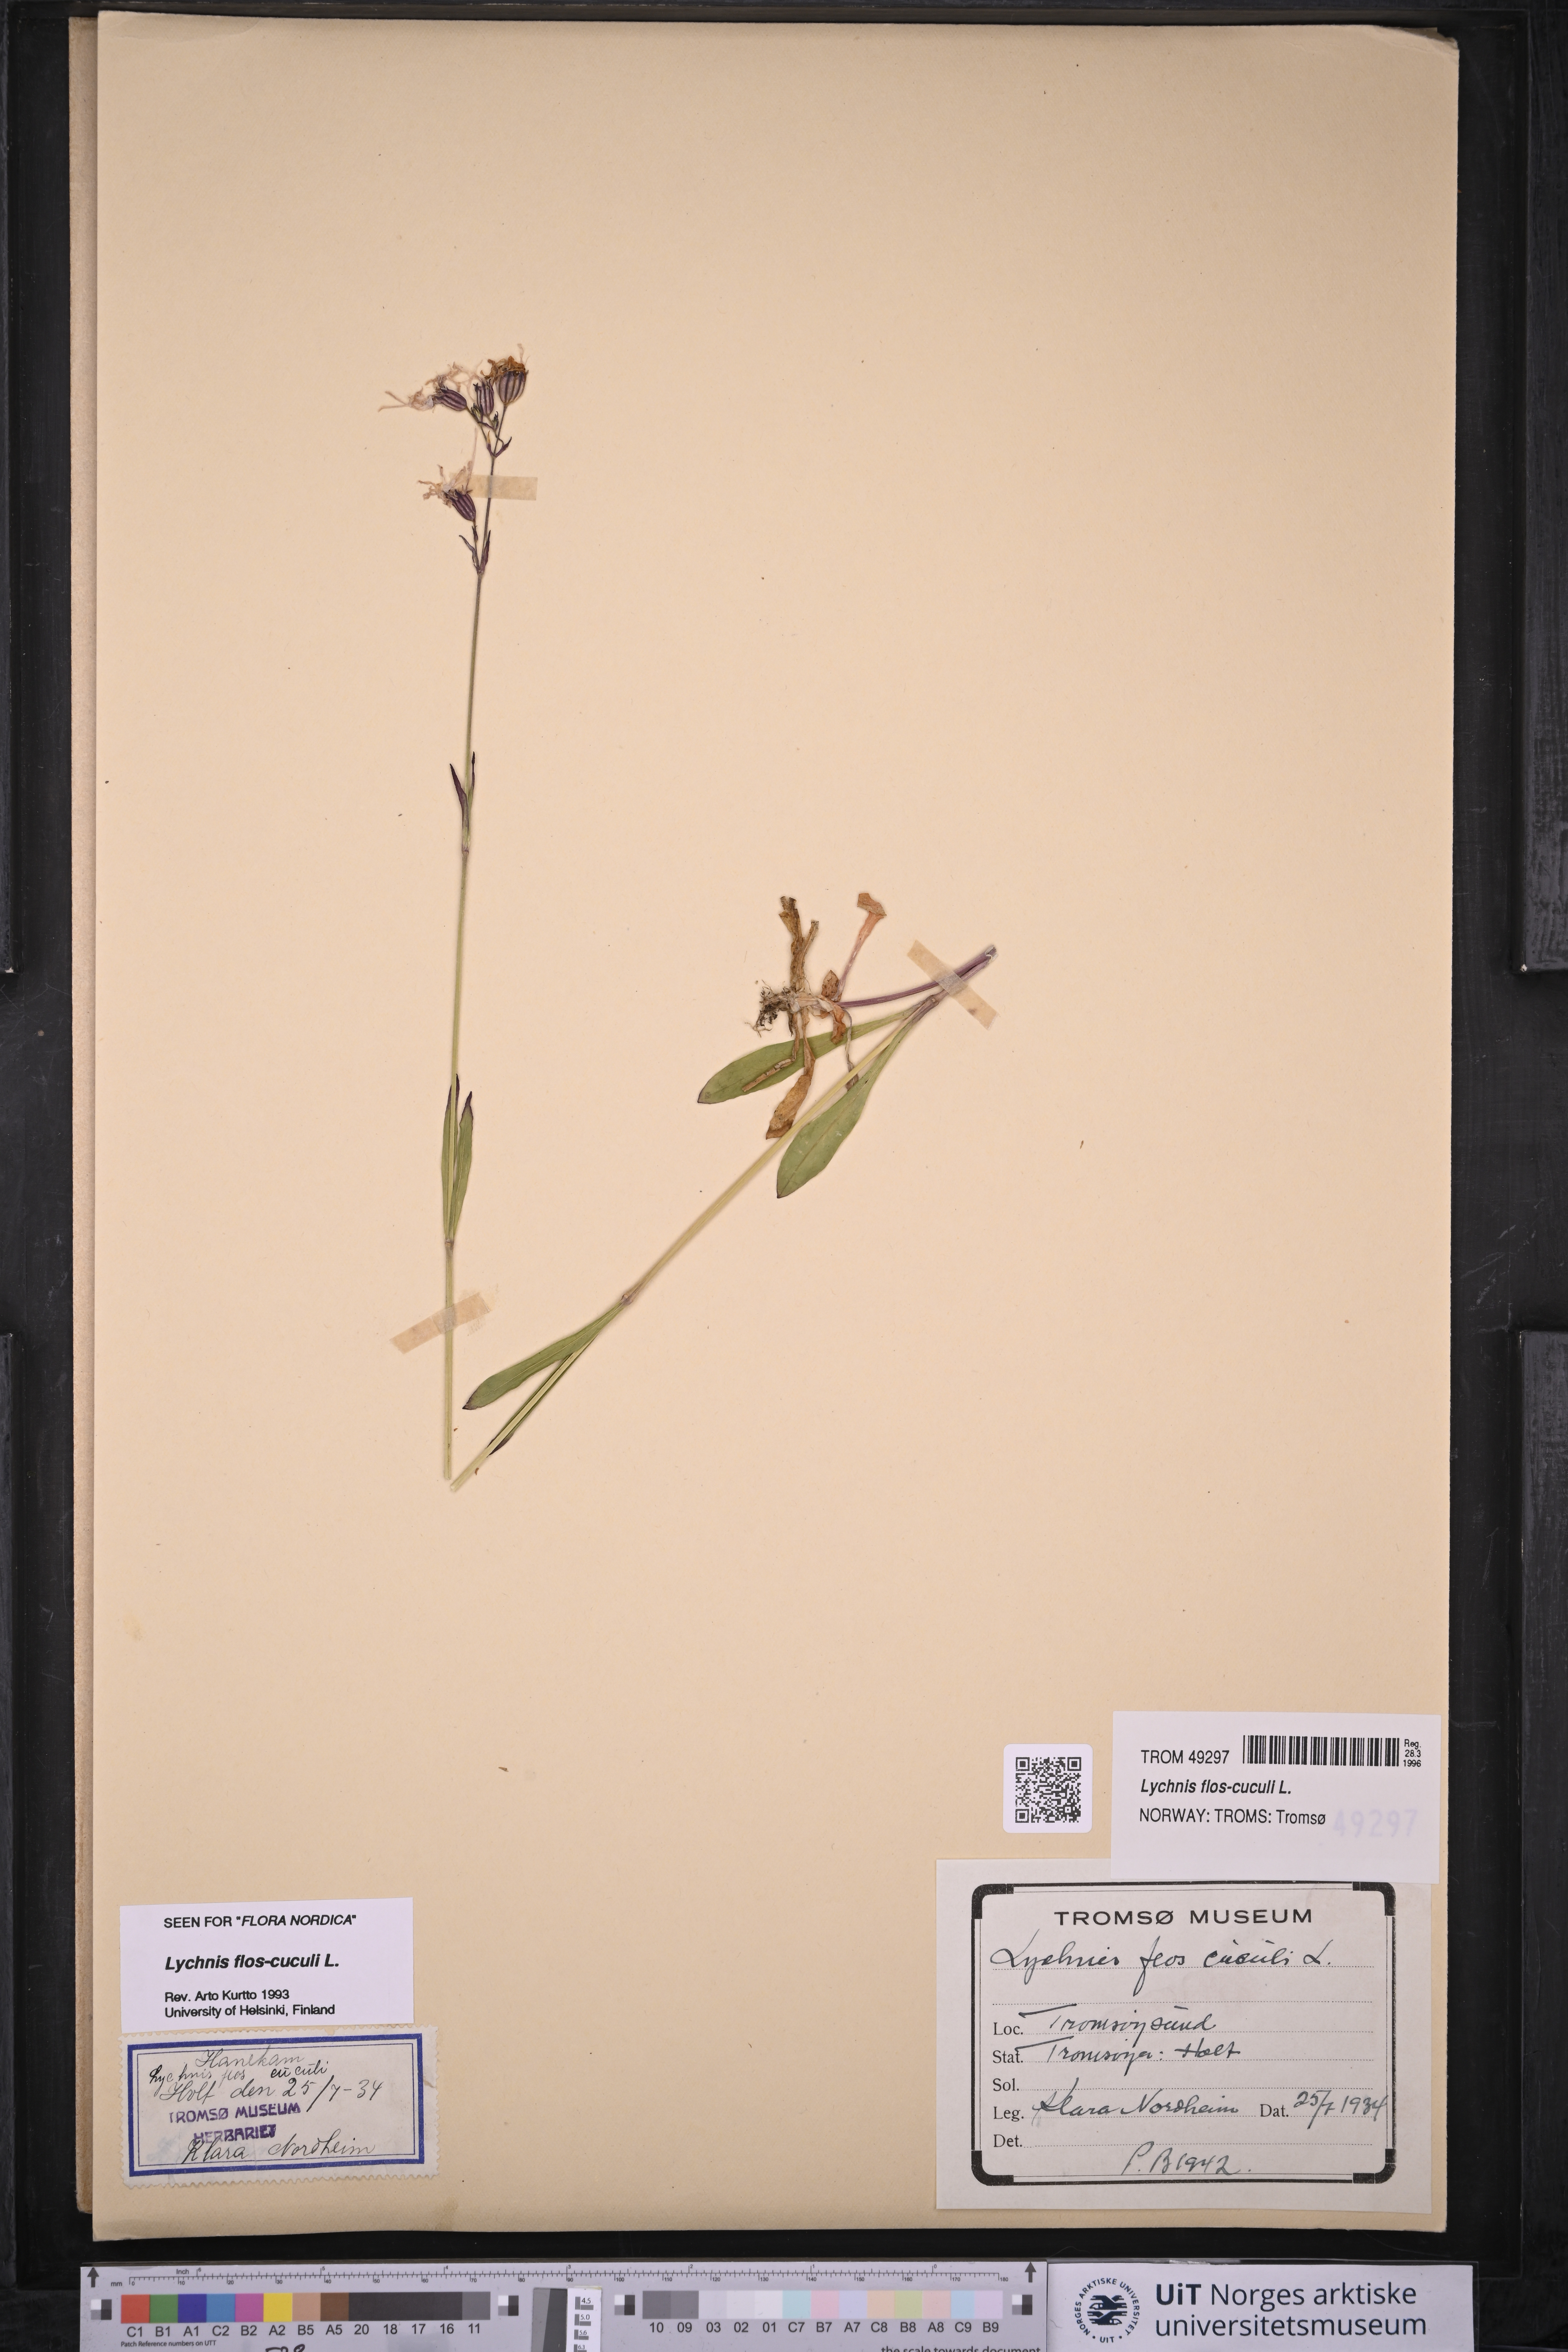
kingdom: Plantae
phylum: Tracheophyta
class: Magnoliopsida
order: Caryophyllales
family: Caryophyllaceae
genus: Silene
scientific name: Silene flos-cuculi
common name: Ragged-robin
